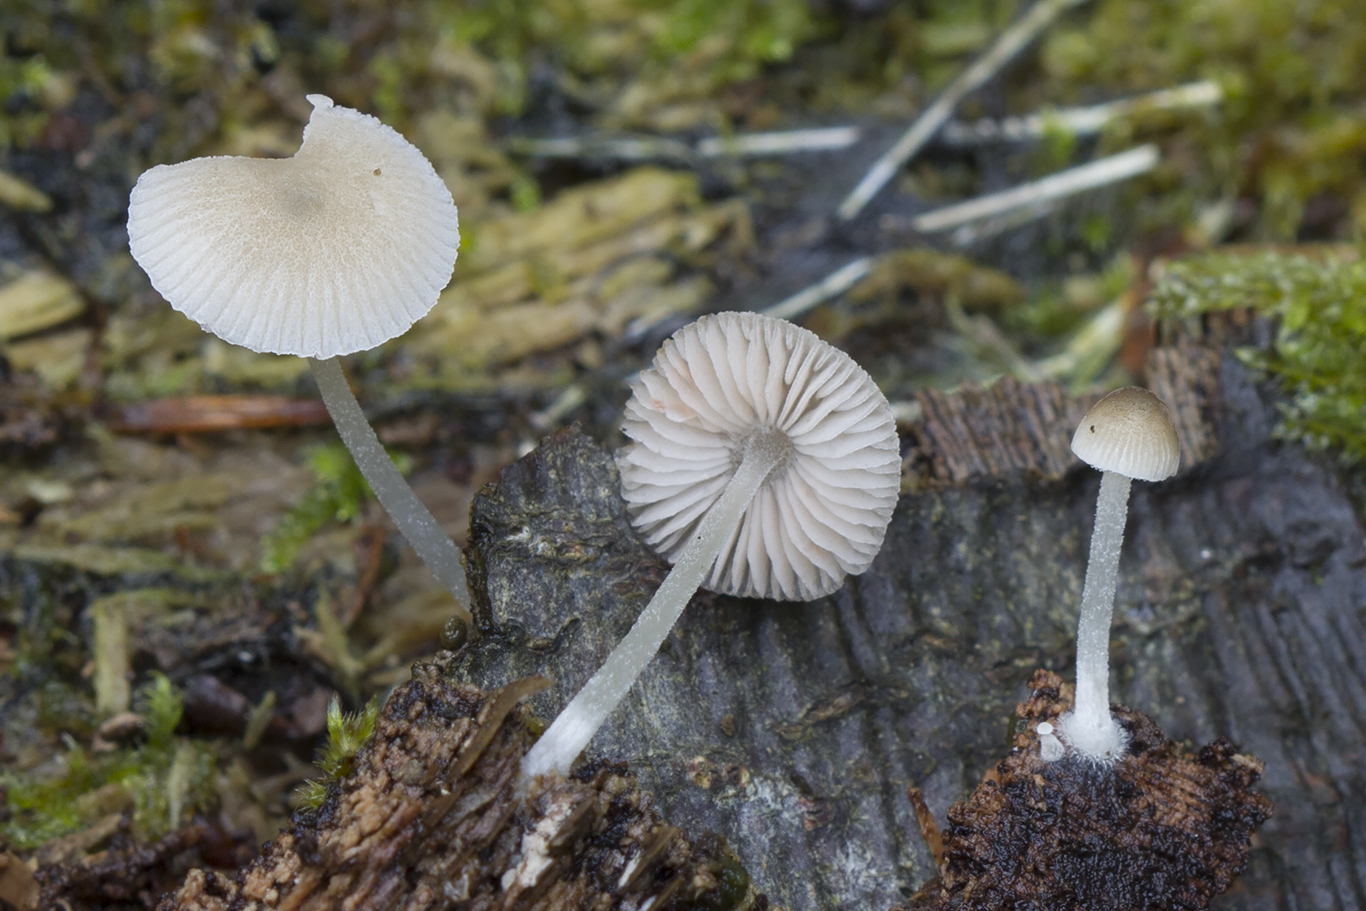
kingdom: Fungi
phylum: Basidiomycota
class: Agaricomycetes
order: Agaricales
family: Pluteaceae
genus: Pluteus
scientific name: Pluteus longistriatus
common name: hjul-skærmhat
